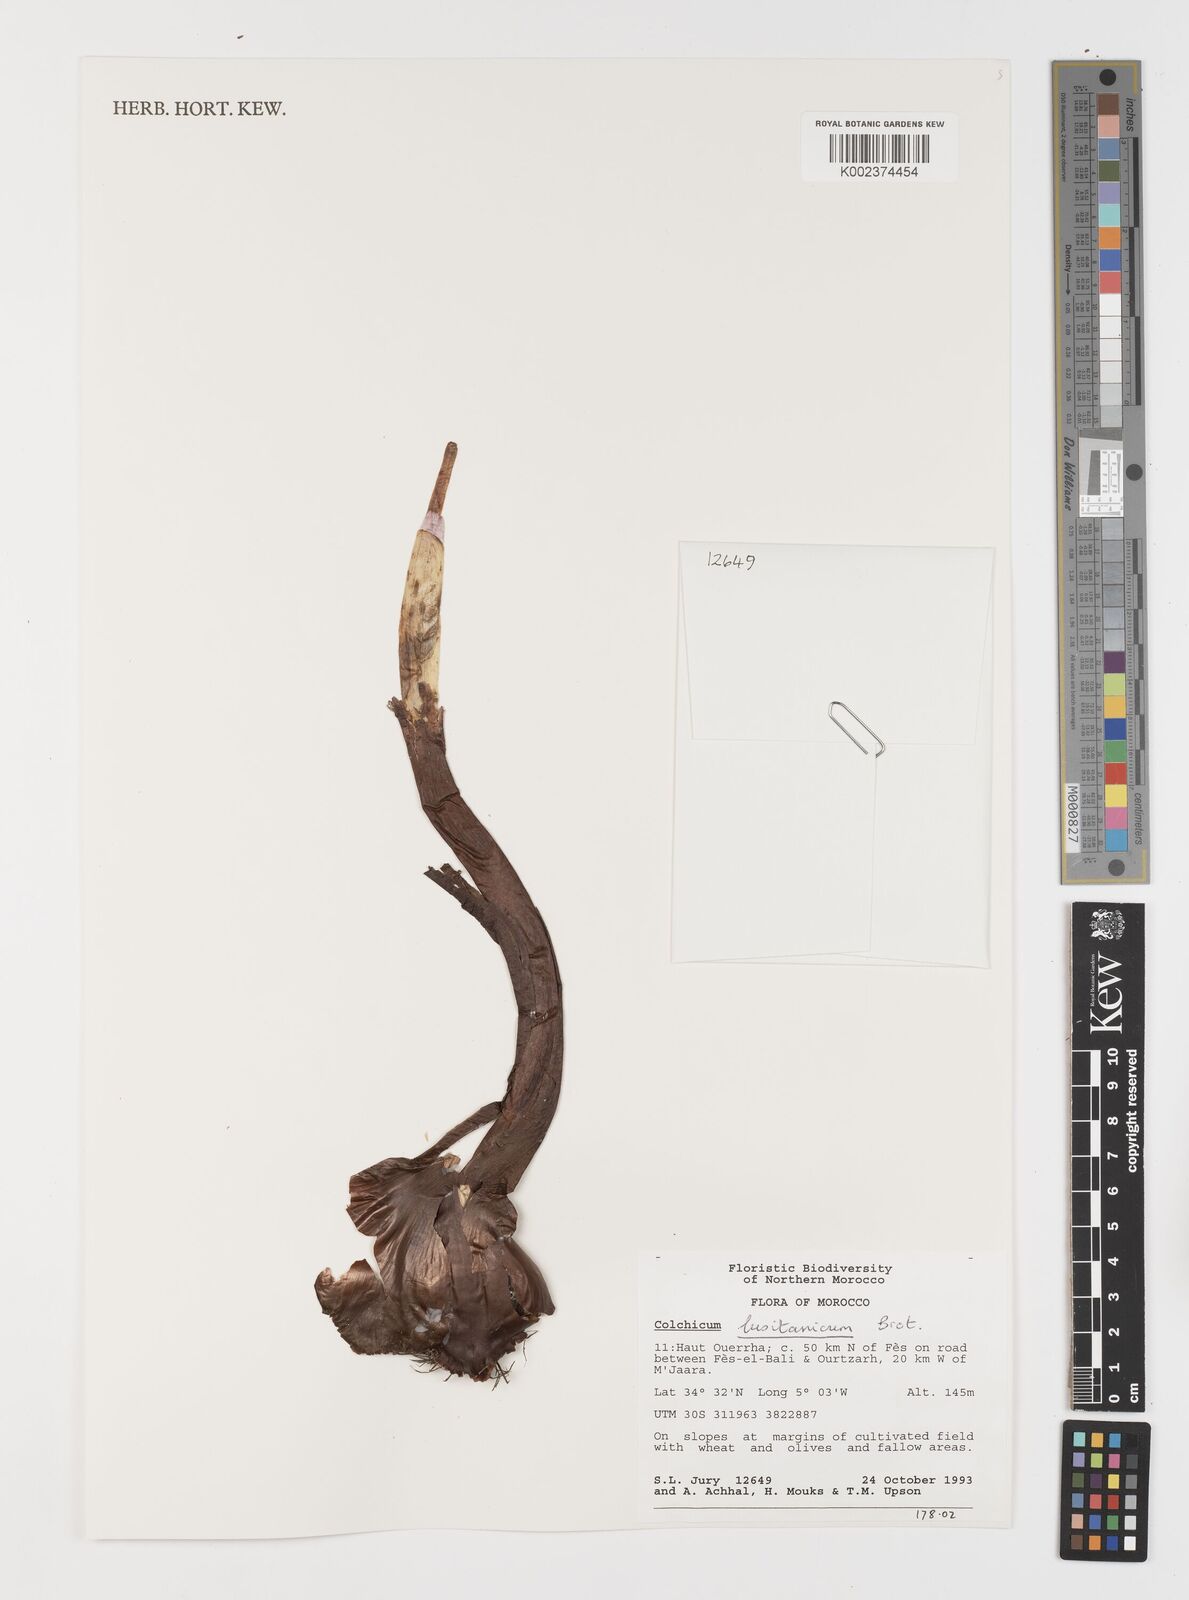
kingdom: Plantae
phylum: Tracheophyta
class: Liliopsida
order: Liliales
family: Colchicaceae
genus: Colchicum
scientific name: Colchicum lusitanum
